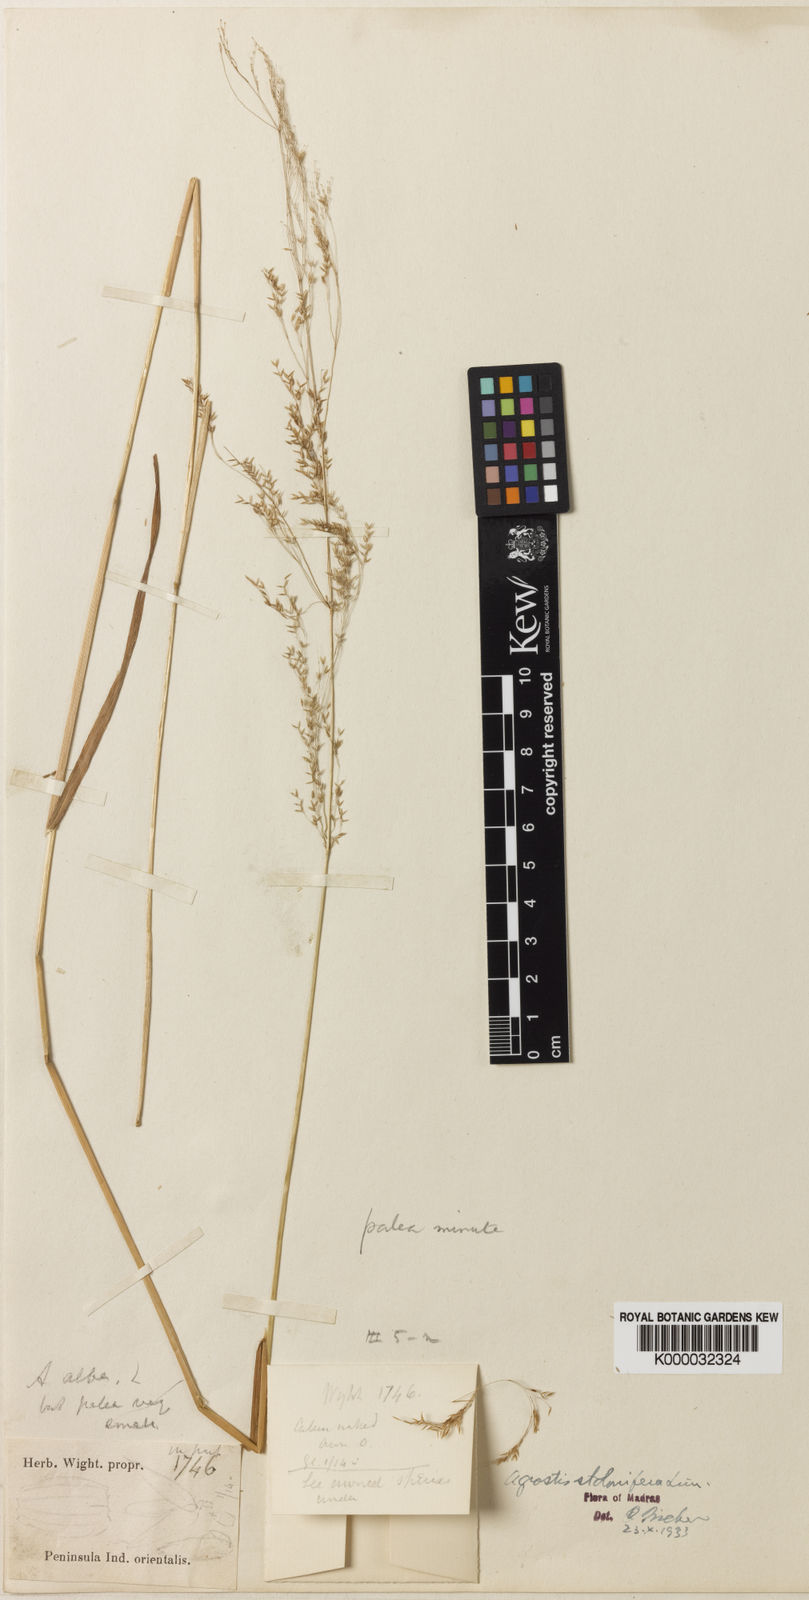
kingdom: Plantae
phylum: Tracheophyta
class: Liliopsida
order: Poales
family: Poaceae
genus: Agrostis
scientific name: Agrostis stolonifera
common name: Creeping bentgrass
